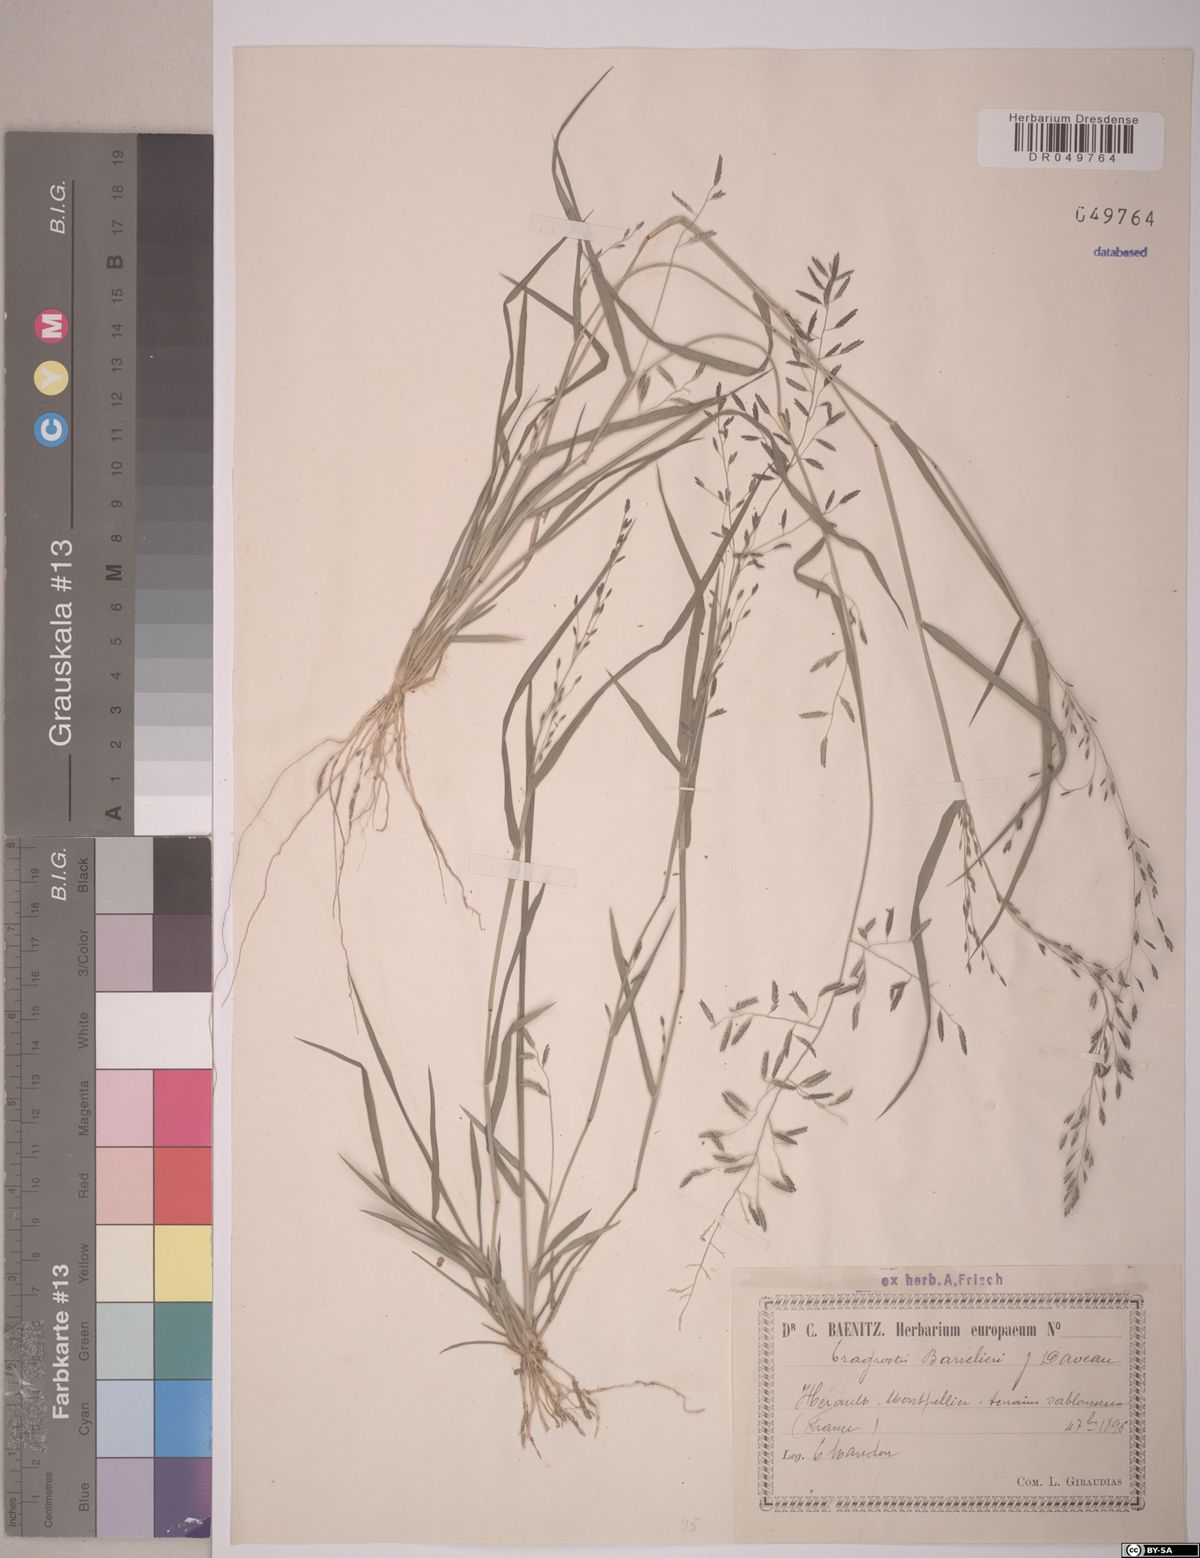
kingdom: Plantae
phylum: Tracheophyta
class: Liliopsida
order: Poales
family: Poaceae
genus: Eragrostis
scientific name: Eragrostis barrelieri
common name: Mediterranean lovegrass
